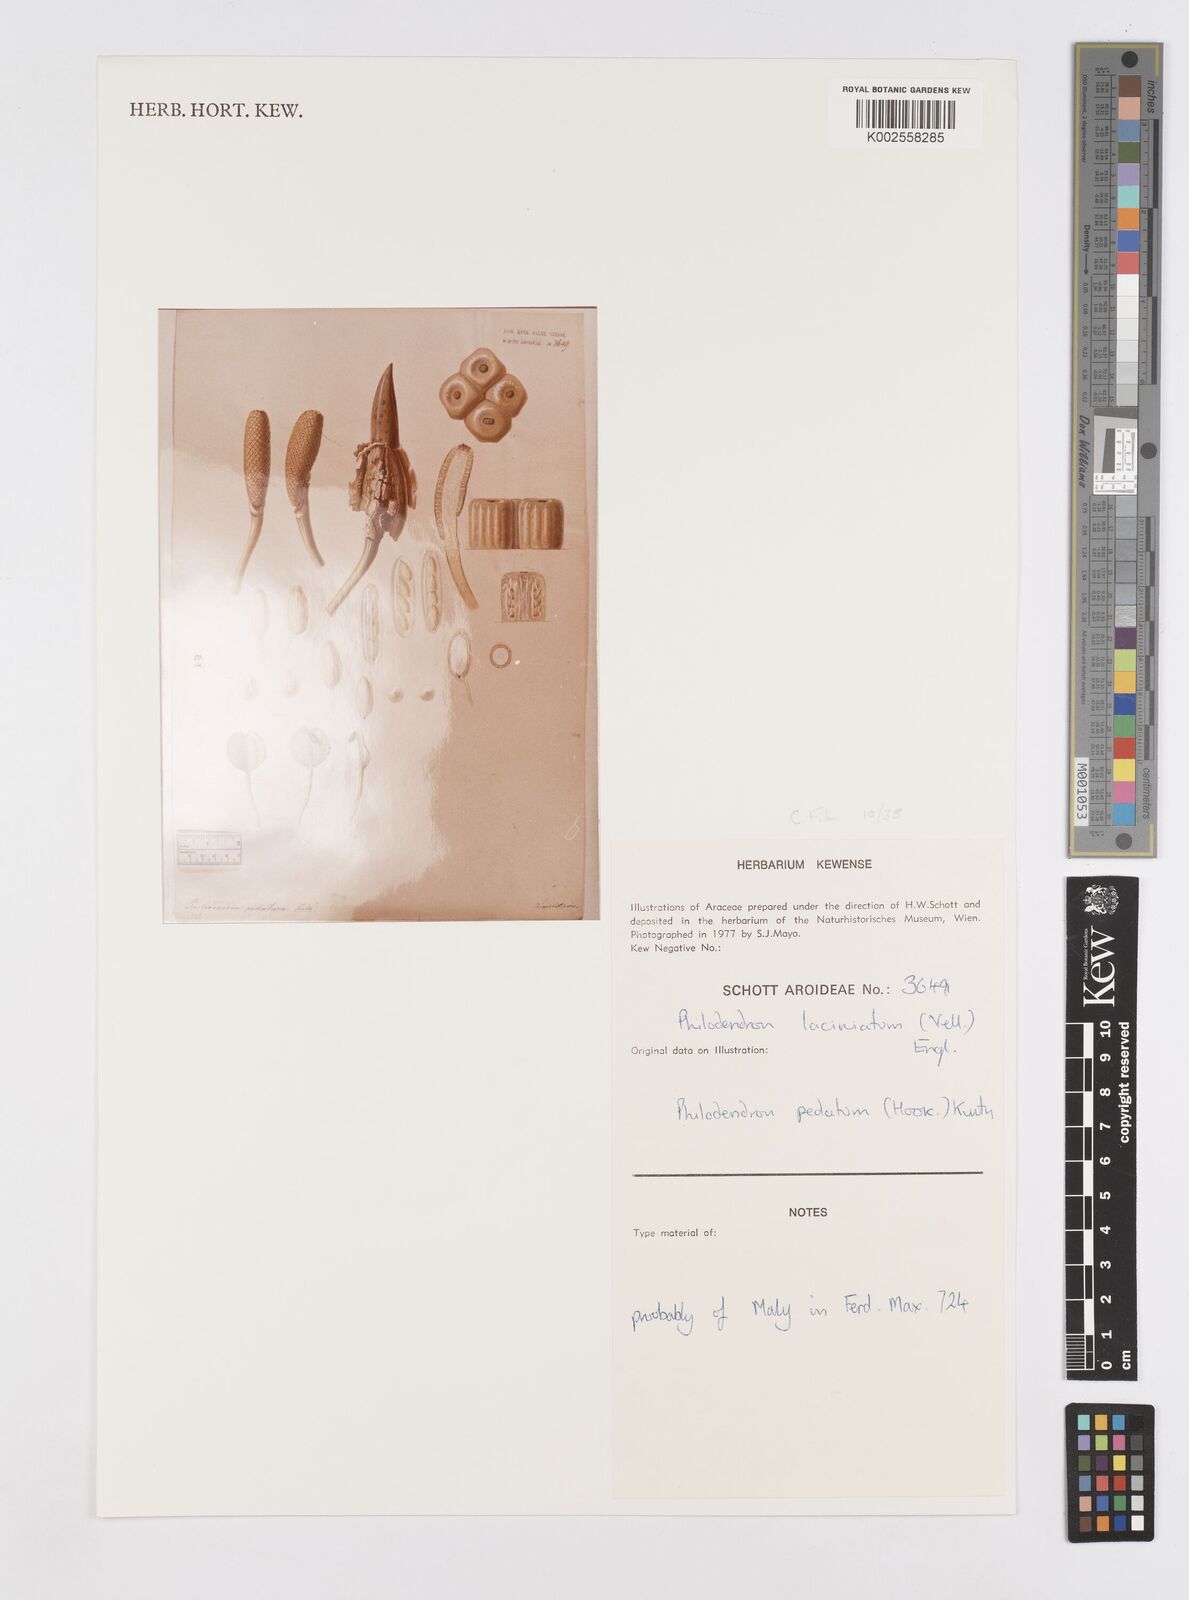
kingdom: Plantae
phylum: Tracheophyta
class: Liliopsida
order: Alismatales
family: Araceae
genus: Philodendron
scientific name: Philodendron pedatum
